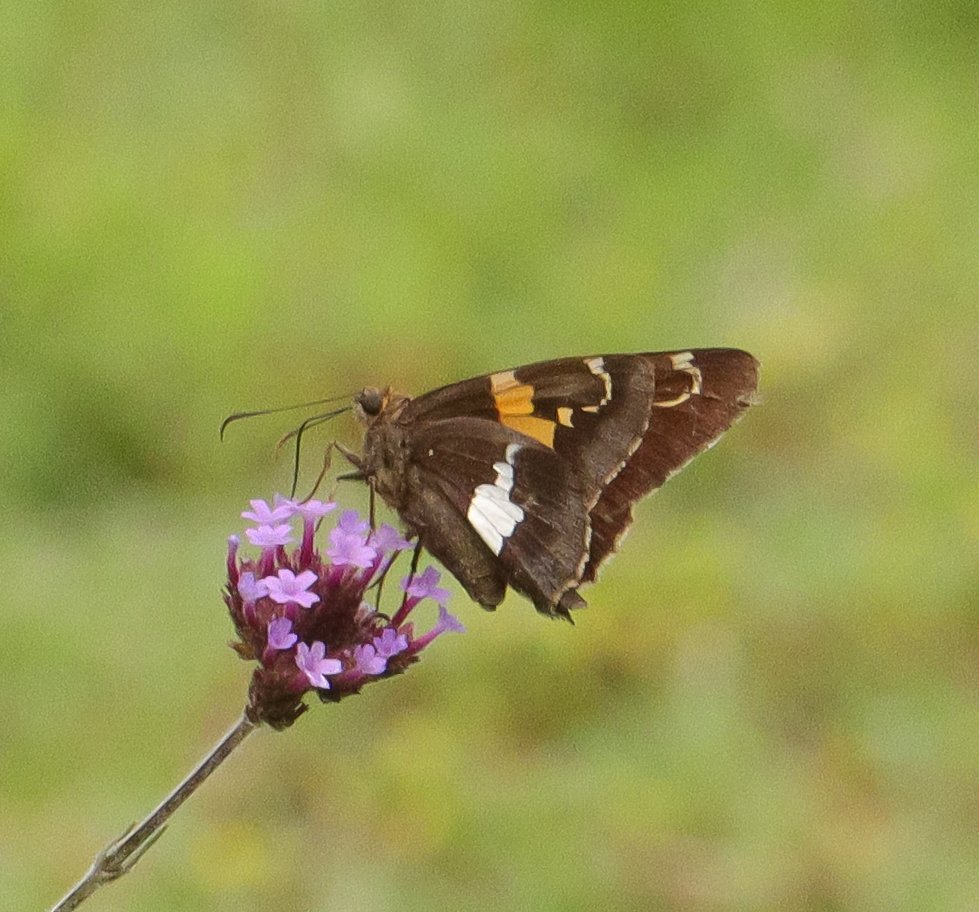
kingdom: Animalia
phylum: Arthropoda
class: Insecta
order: Lepidoptera
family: Hesperiidae
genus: Epargyreus
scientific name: Epargyreus clarus
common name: Silver-spotted Skipper
